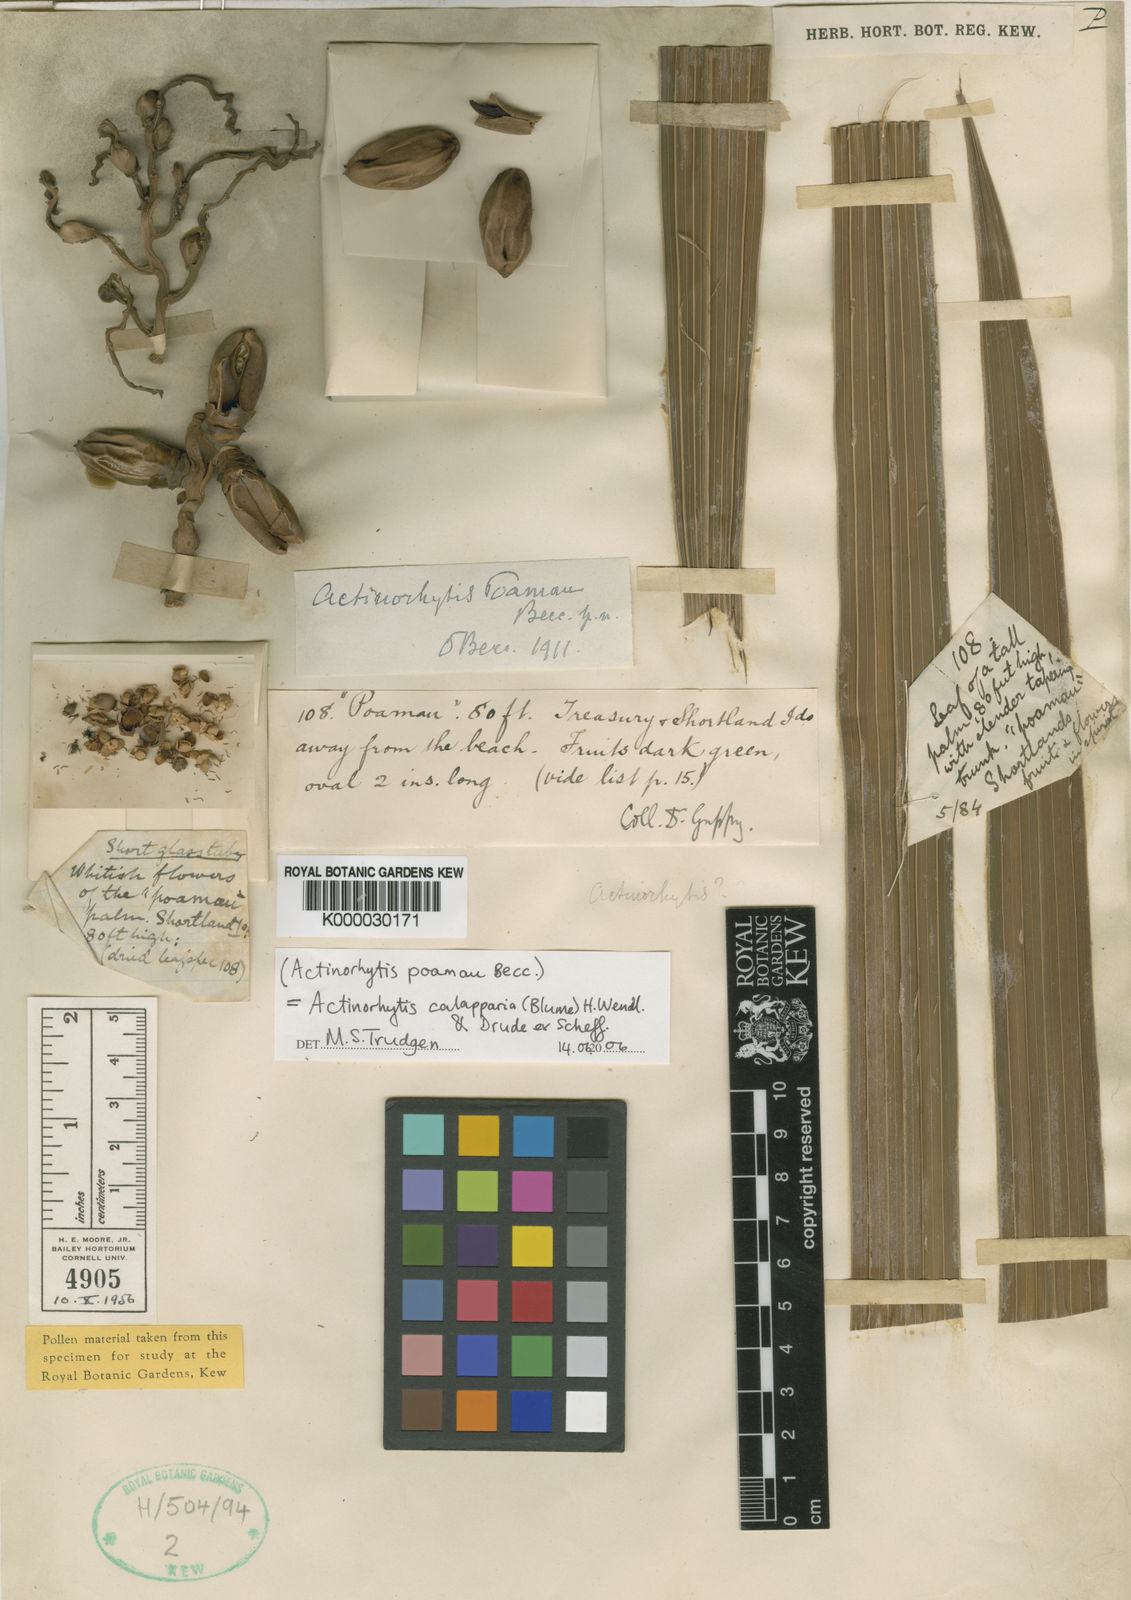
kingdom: Plantae
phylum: Tracheophyta
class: Liliopsida
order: Arecales
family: Arecaceae
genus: Actinorhytis
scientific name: Actinorhytis calapparia
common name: Calappa palm
